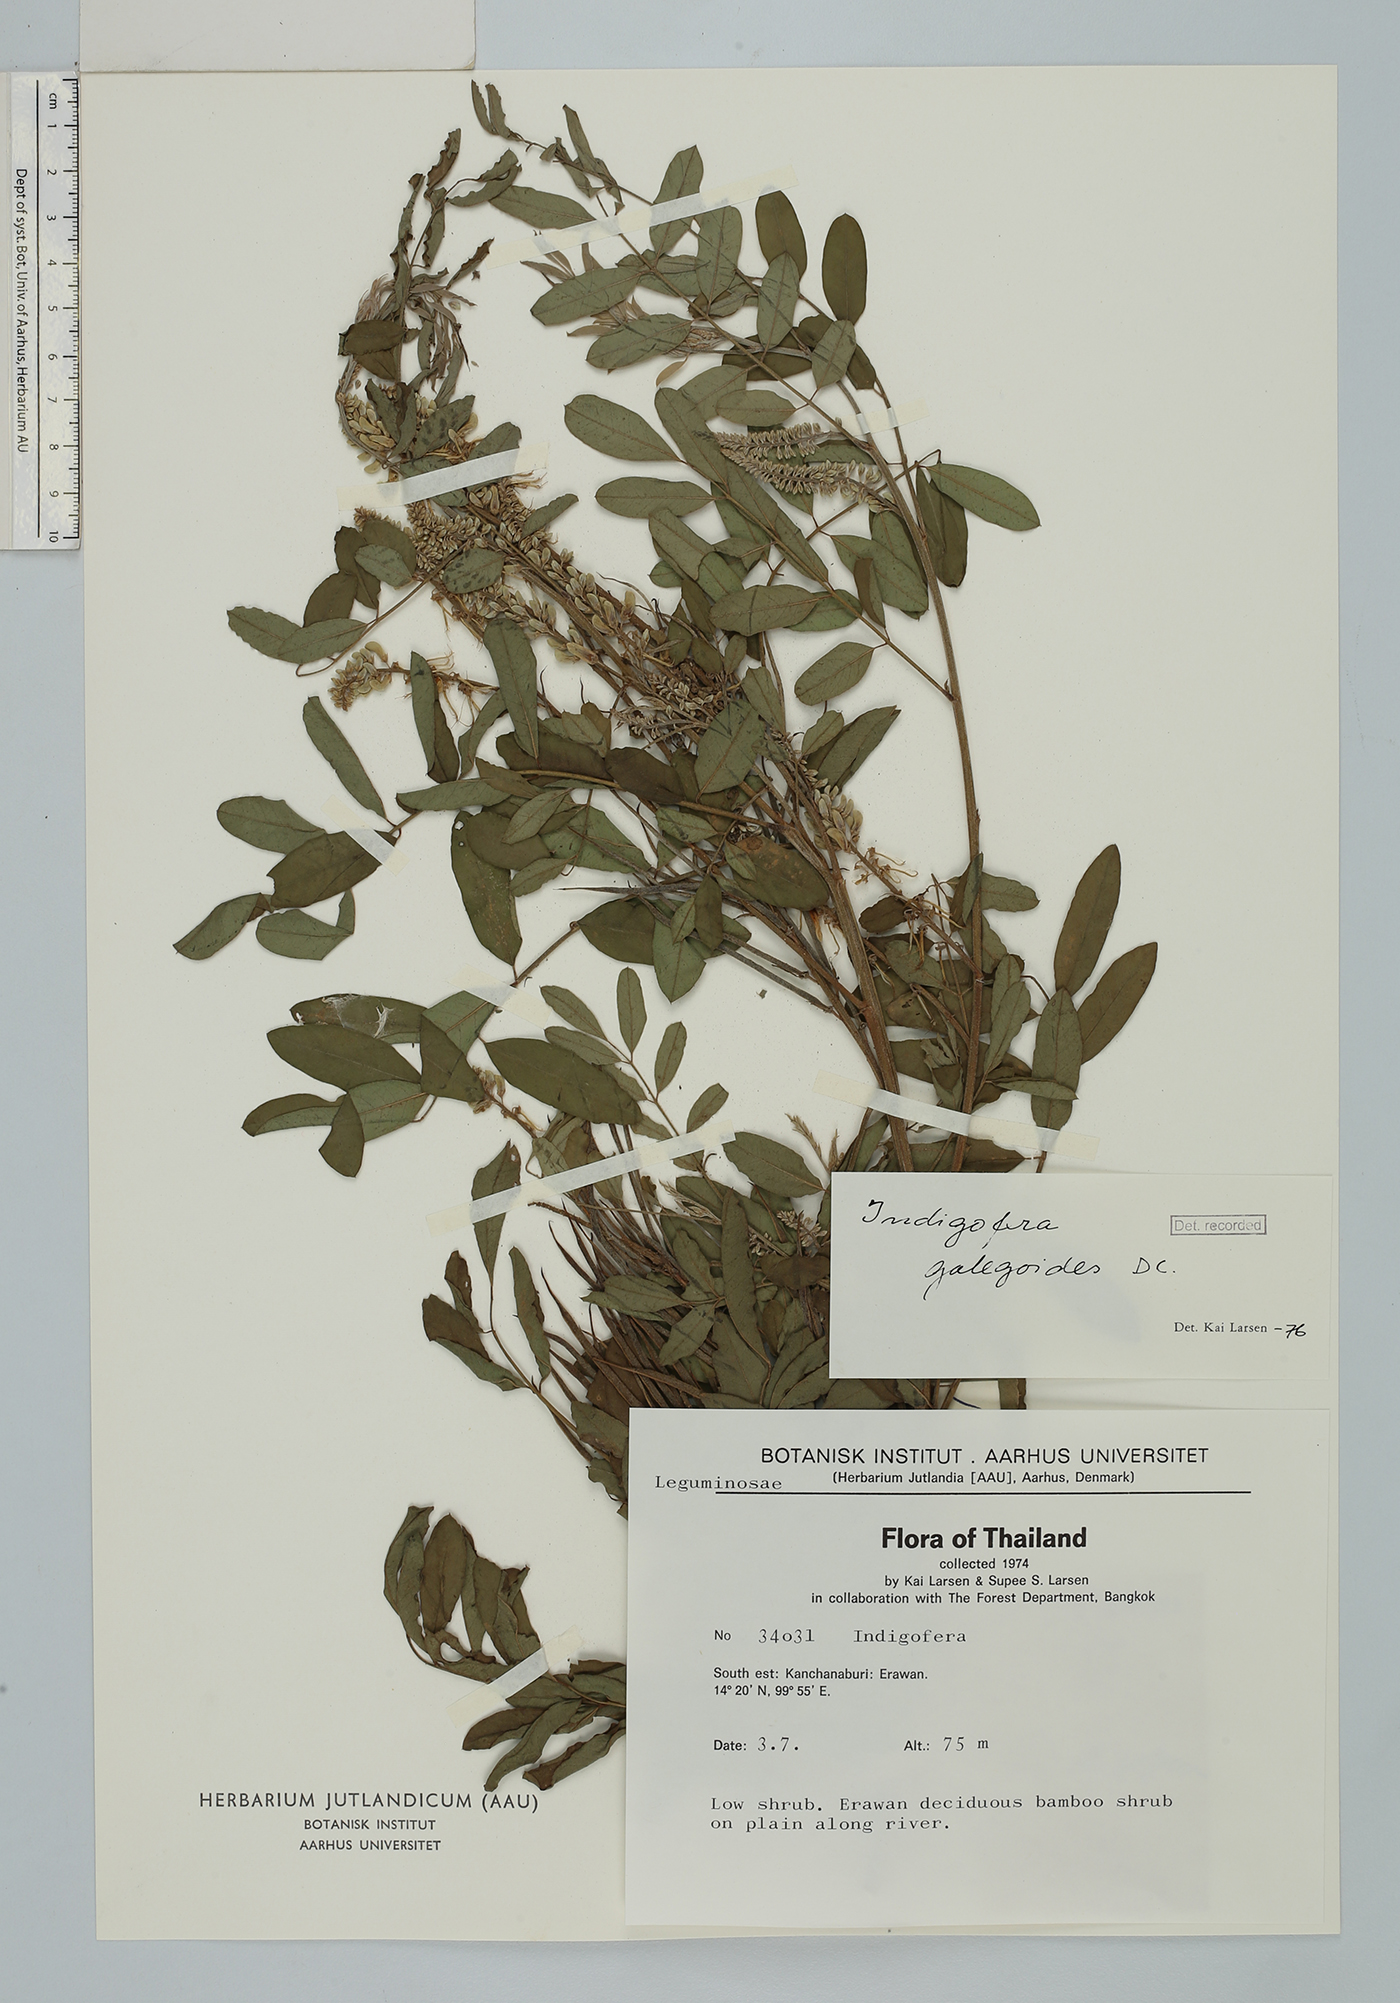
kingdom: Plantae
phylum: Tracheophyta
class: Magnoliopsida
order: Fabales
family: Fabaceae
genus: Indigofera
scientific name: Indigofera galegoides
